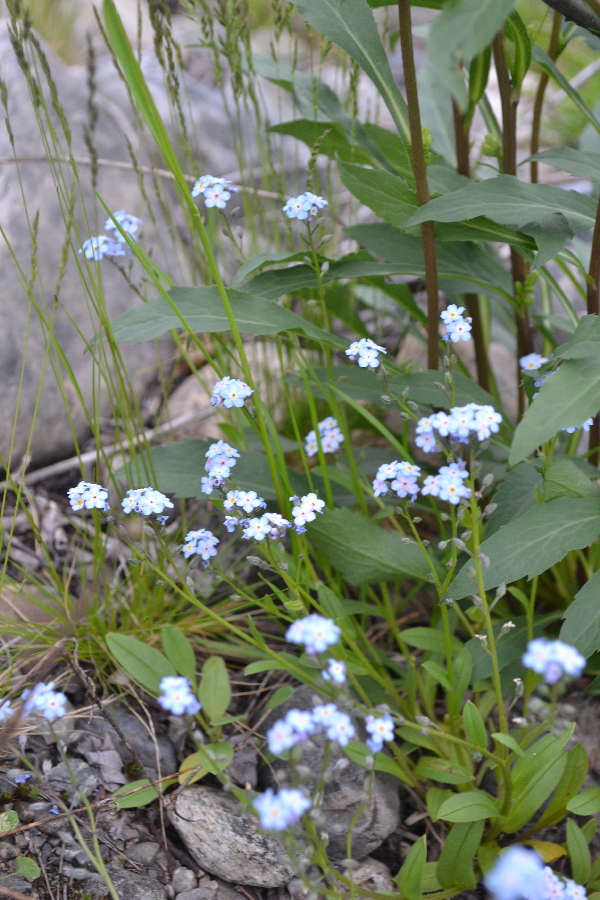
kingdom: Plantae
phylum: Tracheophyta
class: Magnoliopsida
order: Boraginales
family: Boraginaceae
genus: Myosotis
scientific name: Myosotis asiatica
